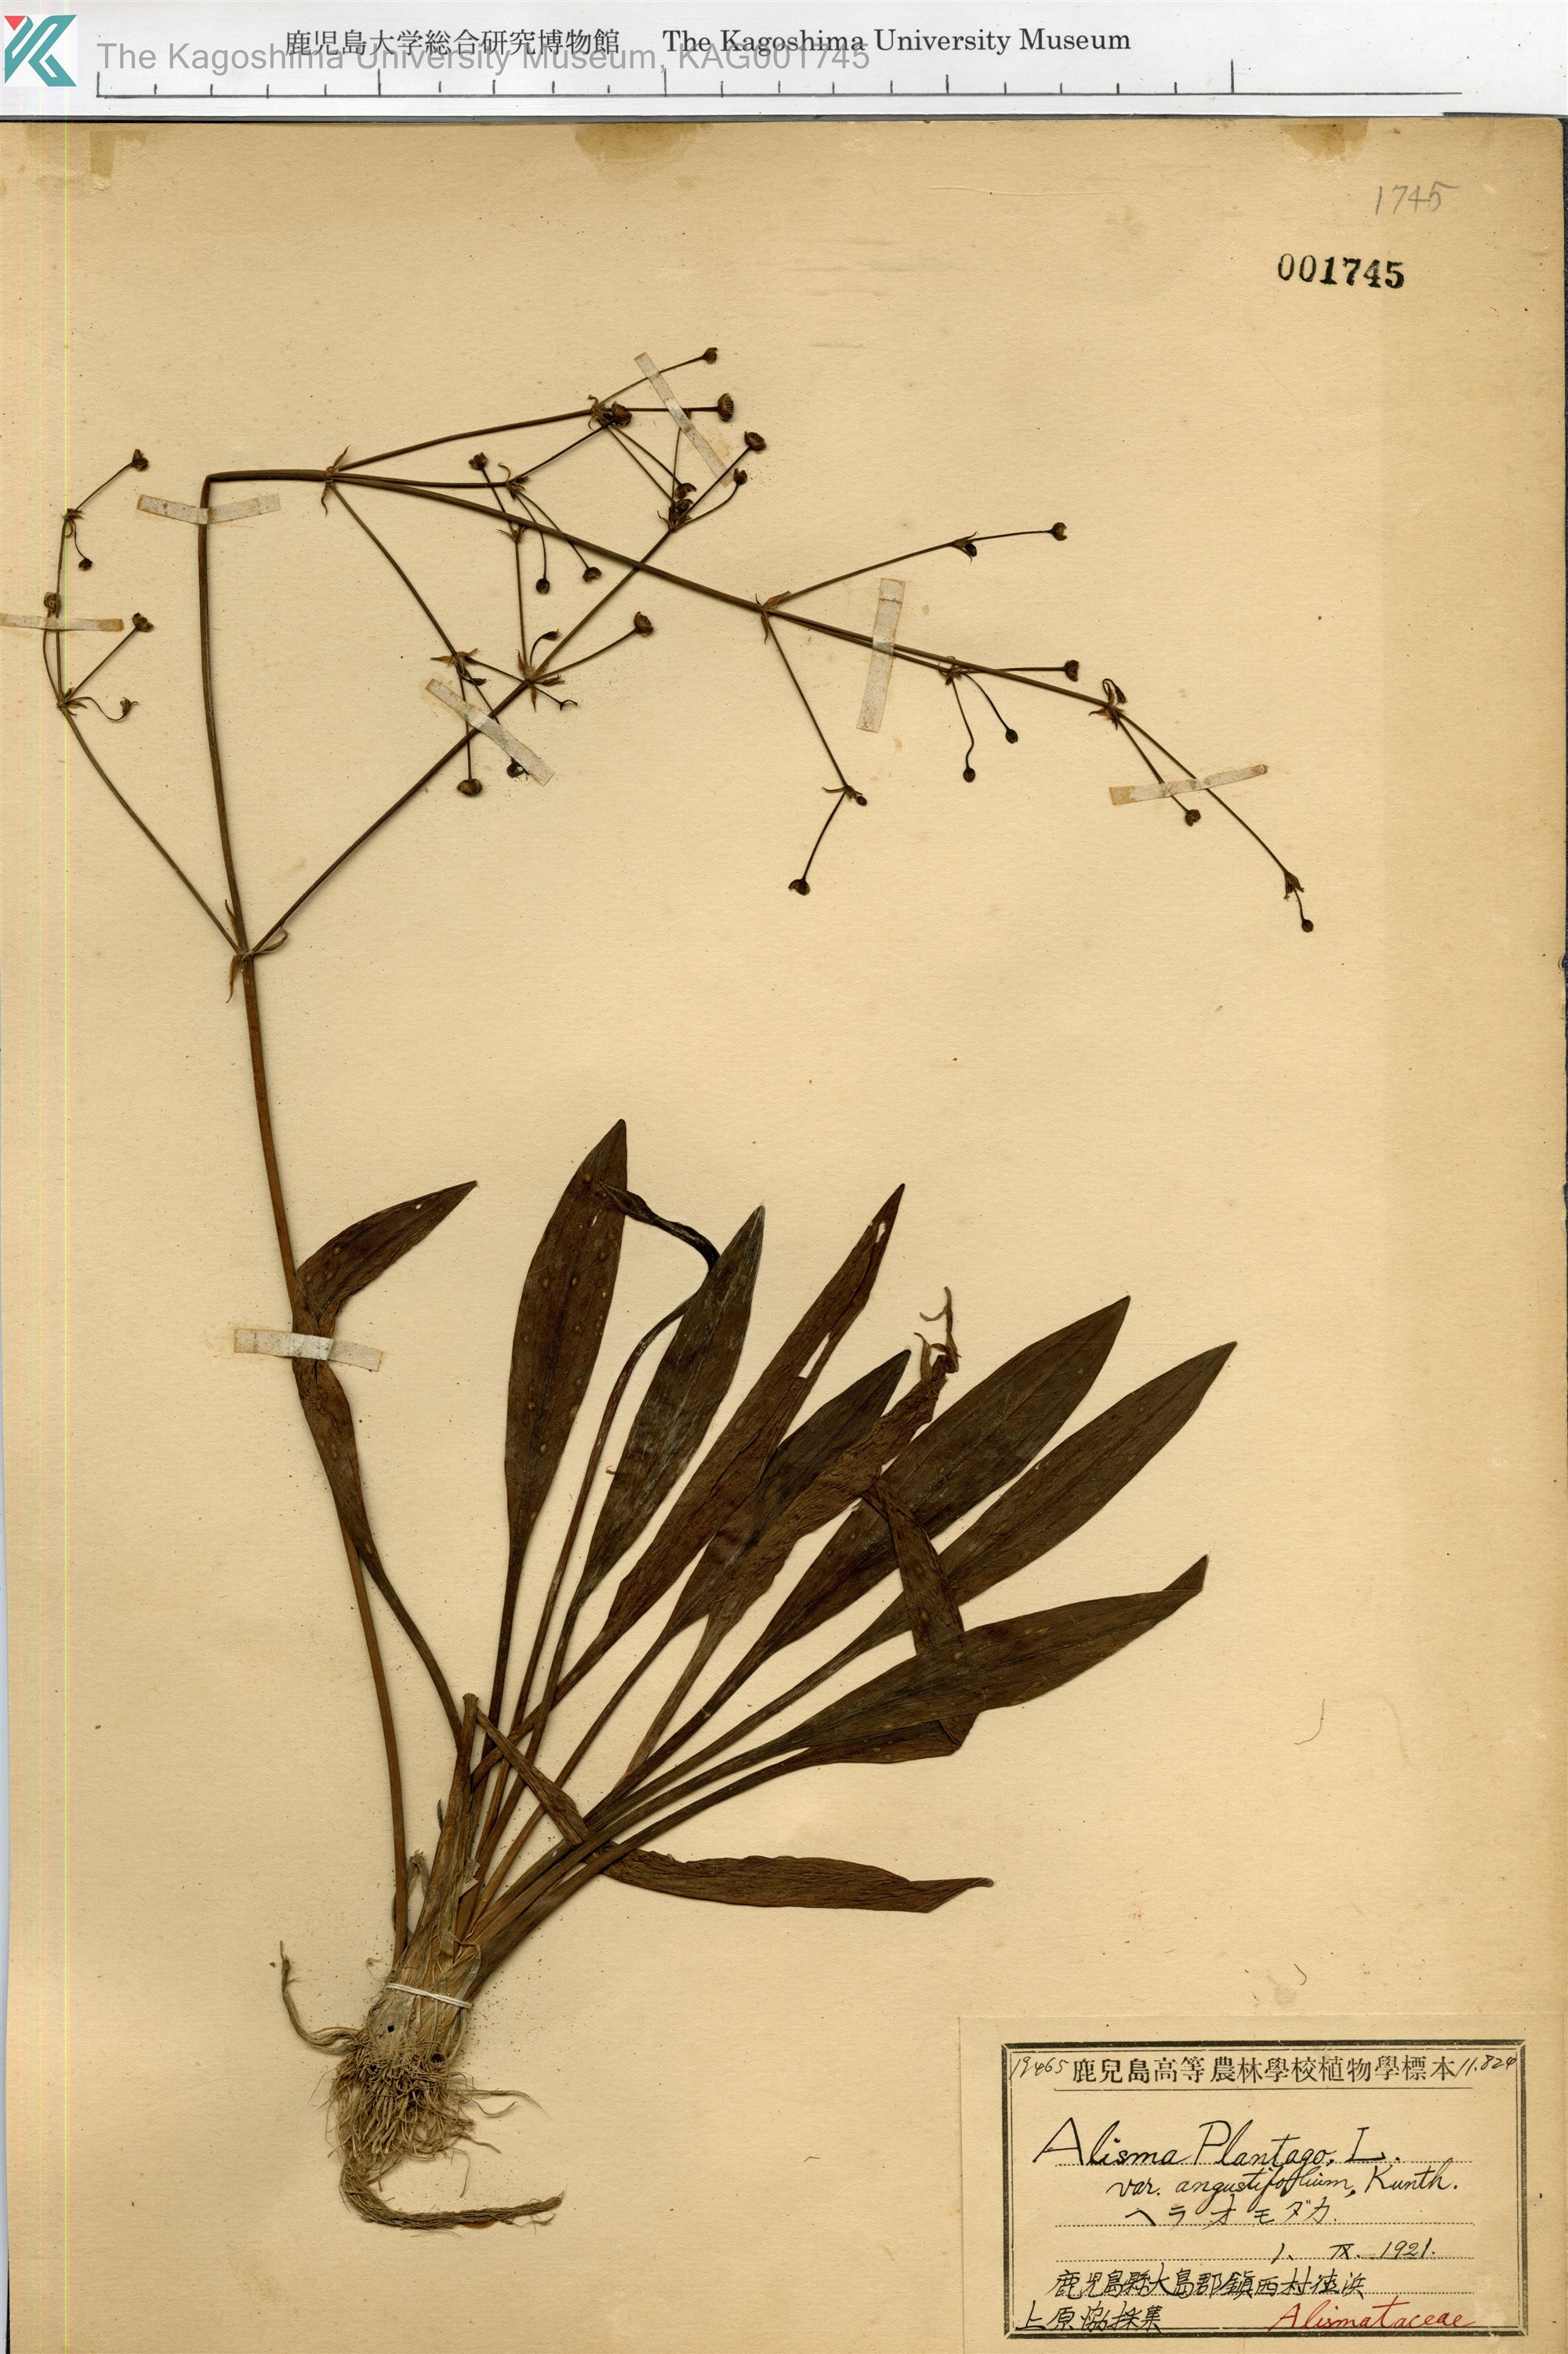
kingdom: Plantae
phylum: Tracheophyta
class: Liliopsida
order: Alismatales
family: Alismataceae
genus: Alisma
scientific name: Alisma canaliculatum
